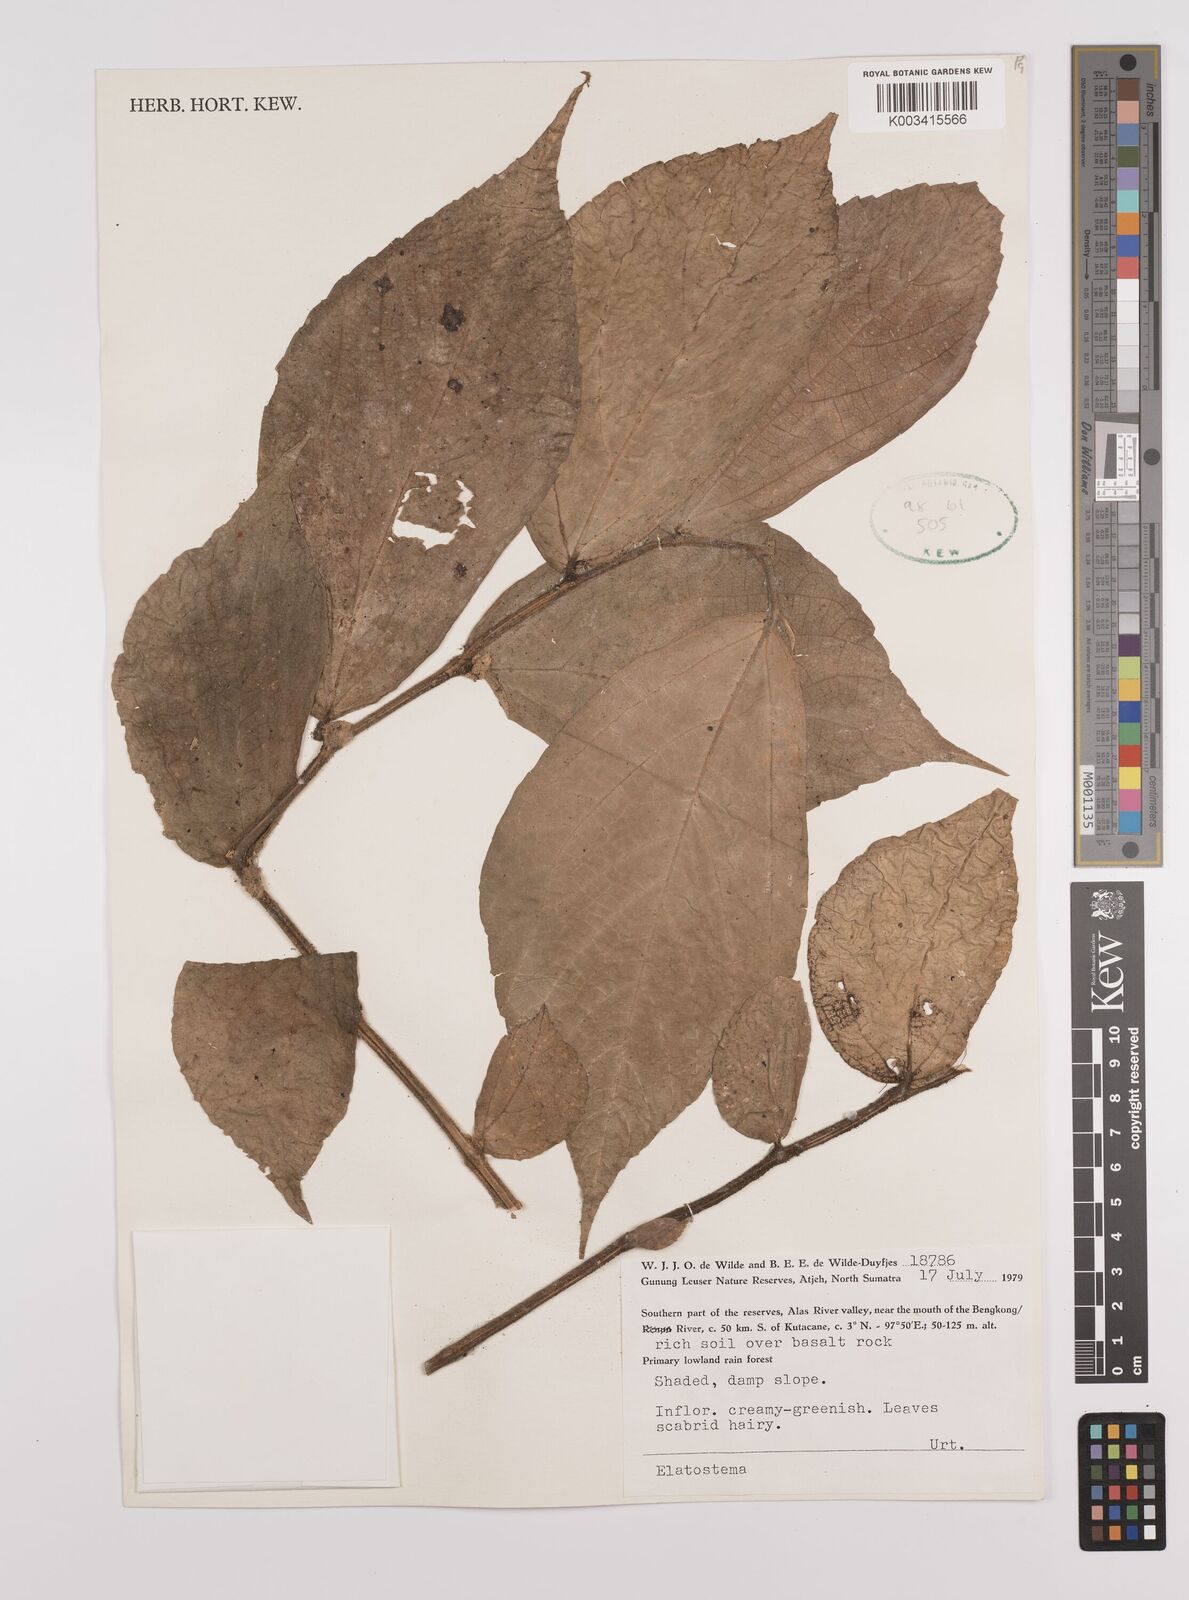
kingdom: Plantae
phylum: Tracheophyta
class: Magnoliopsida
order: Rosales
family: Urticaceae
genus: Elatostema
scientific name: Elatostema
